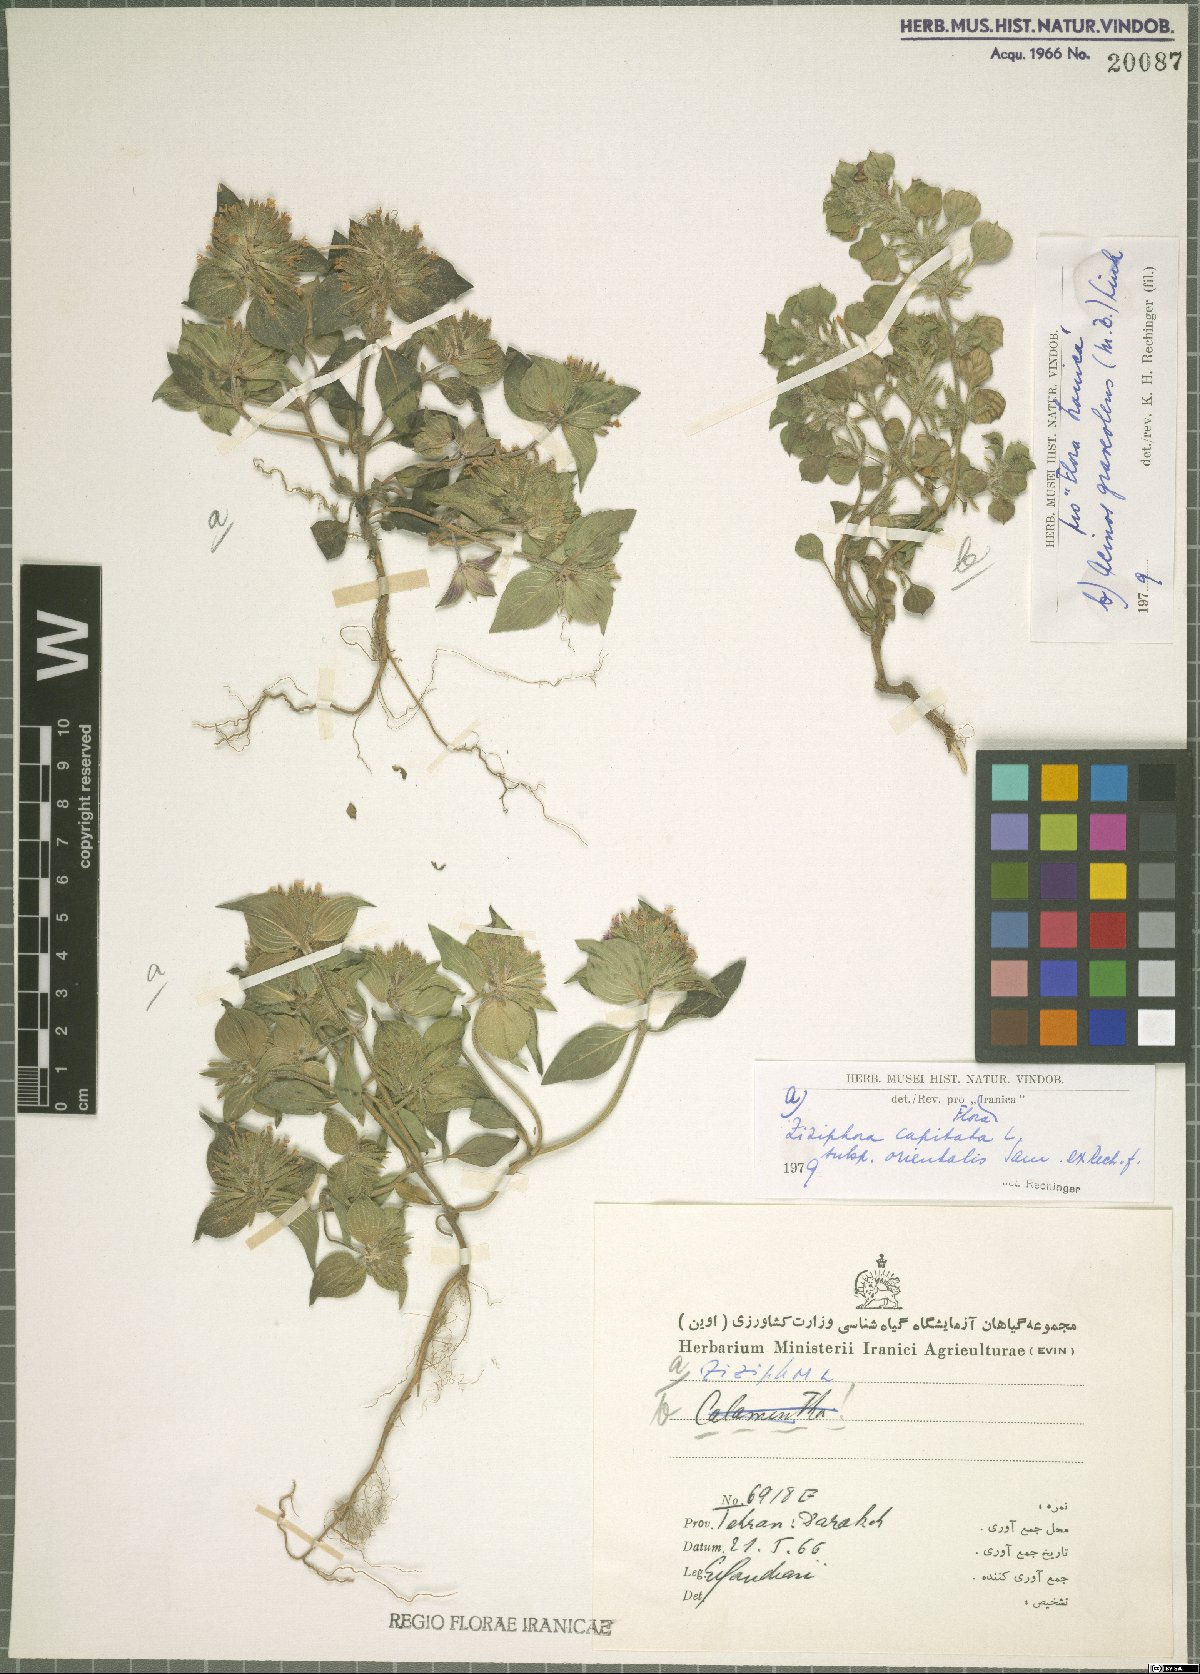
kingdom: Plantae
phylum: Tracheophyta
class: Magnoliopsida
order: Lamiales
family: Lamiaceae
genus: Ziziphora
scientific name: Ziziphora capitata
